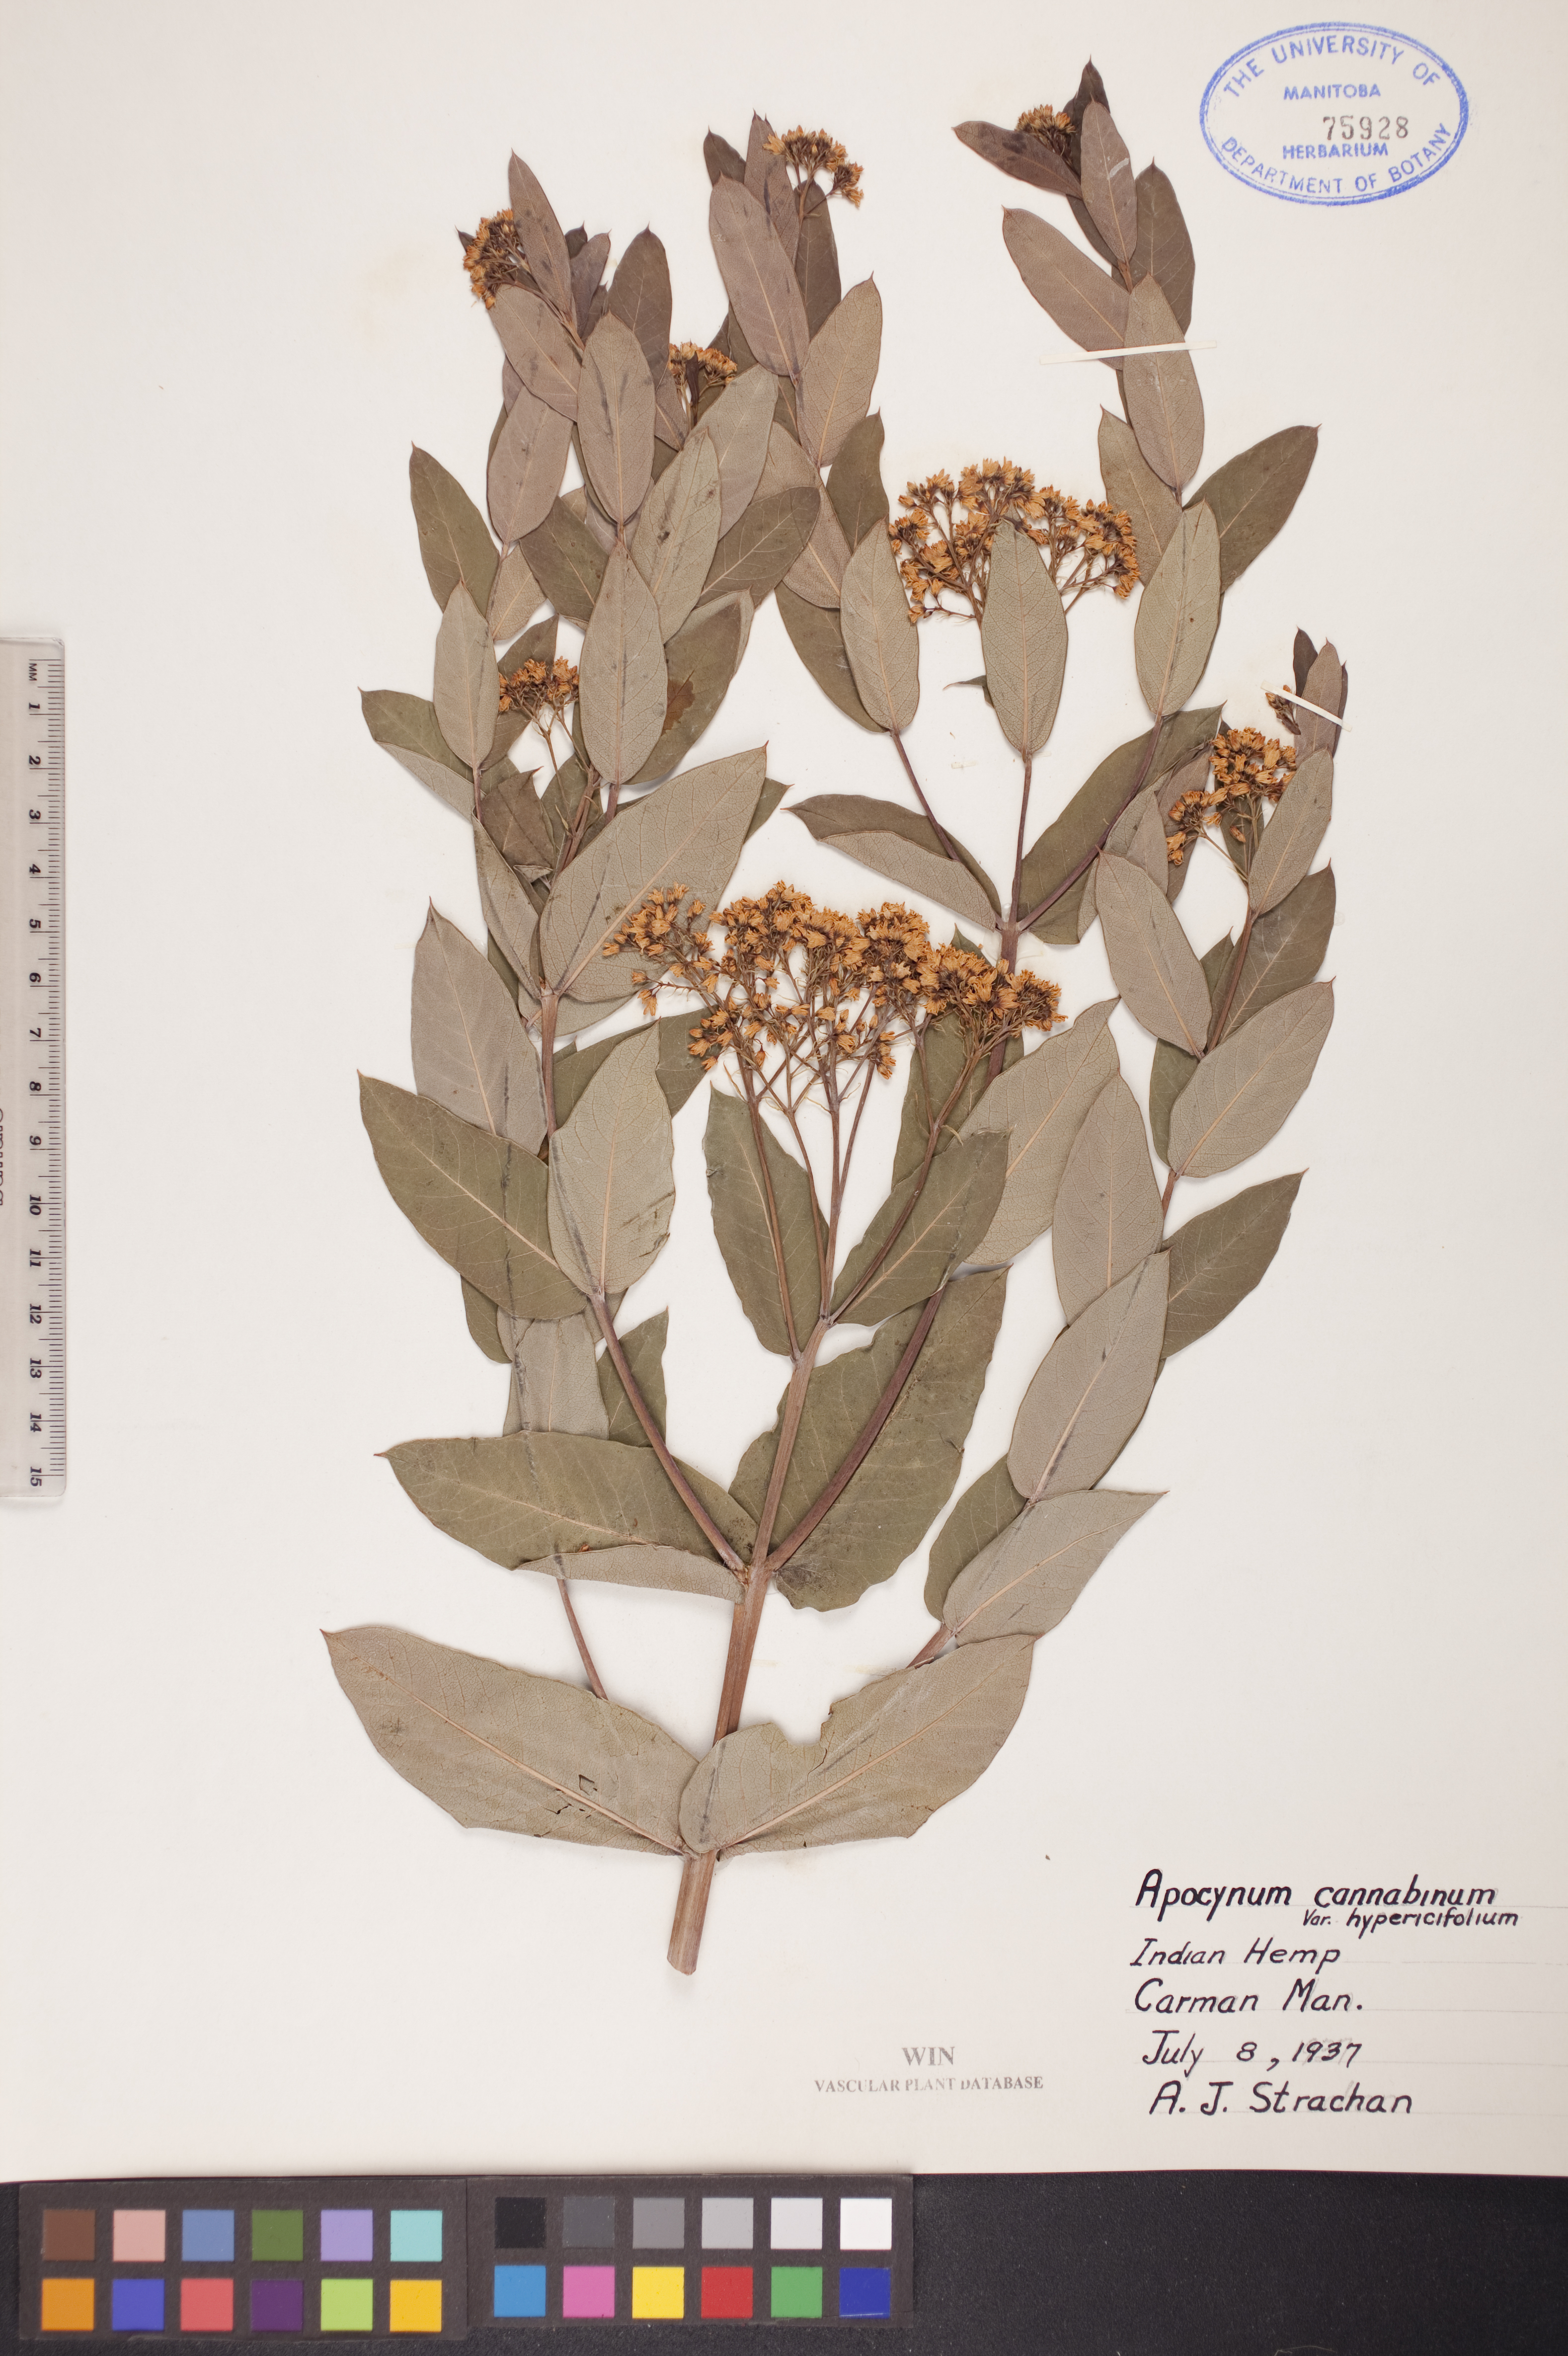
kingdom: Plantae
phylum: Tracheophyta
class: Magnoliopsida
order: Gentianales
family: Apocynaceae
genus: Apocynum
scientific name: Apocynum cannabinum
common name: Hemp dogbane
